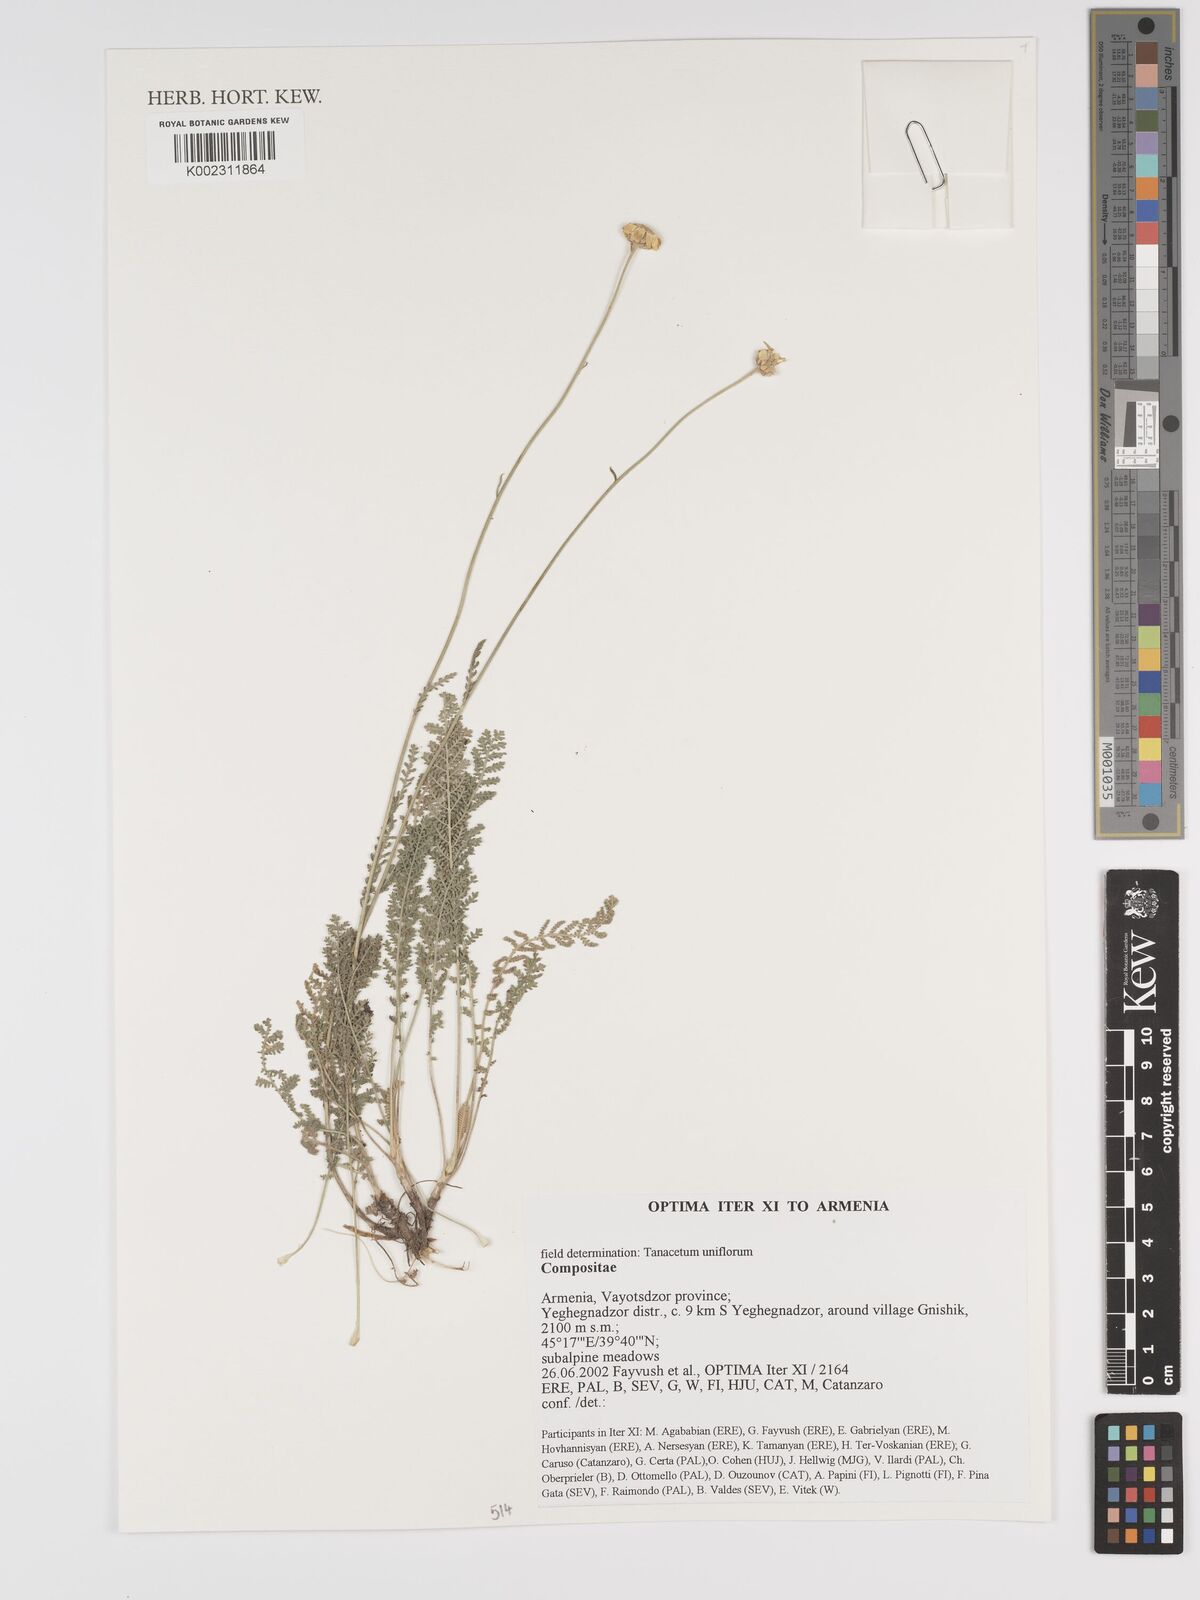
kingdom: Plantae
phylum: Tracheophyta
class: Magnoliopsida
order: Asterales
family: Asteraceae
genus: Tanacetum
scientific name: Tanacetum uniflorum
